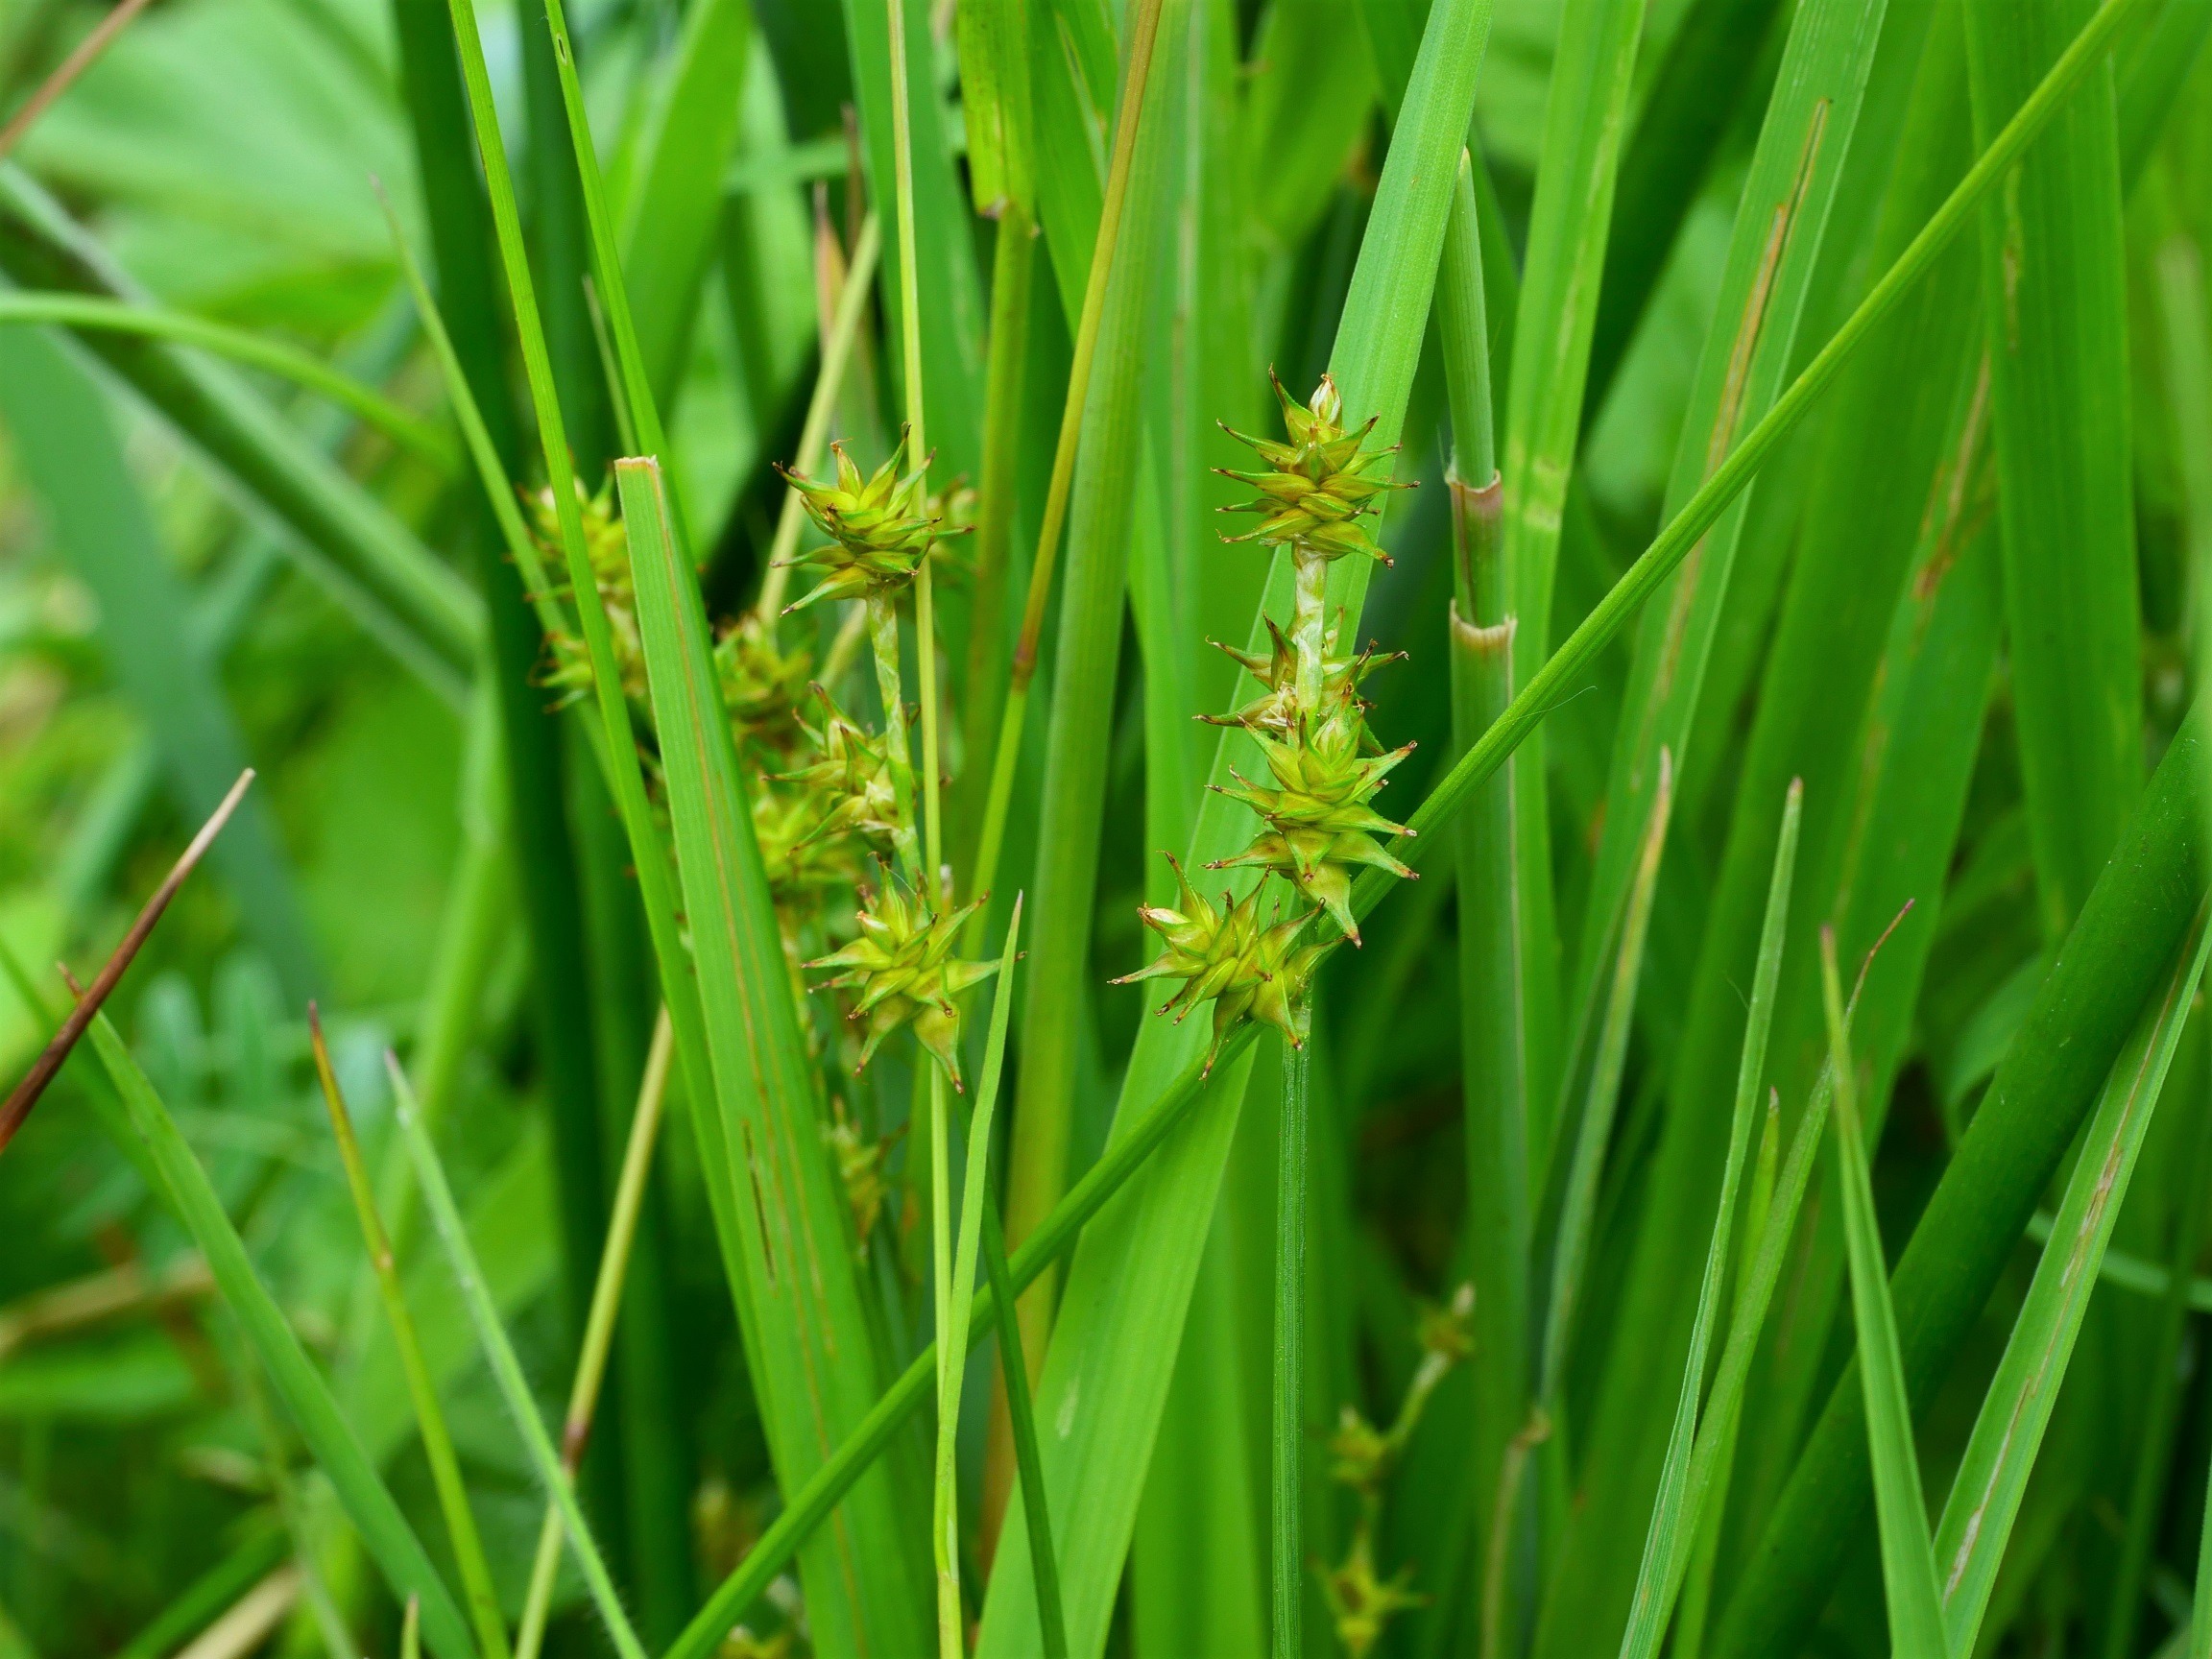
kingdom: Plantae
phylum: Tracheophyta
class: Liliopsida
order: Poales
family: Cyperaceae
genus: Carex
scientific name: Carex echinata
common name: Stjerne-star
